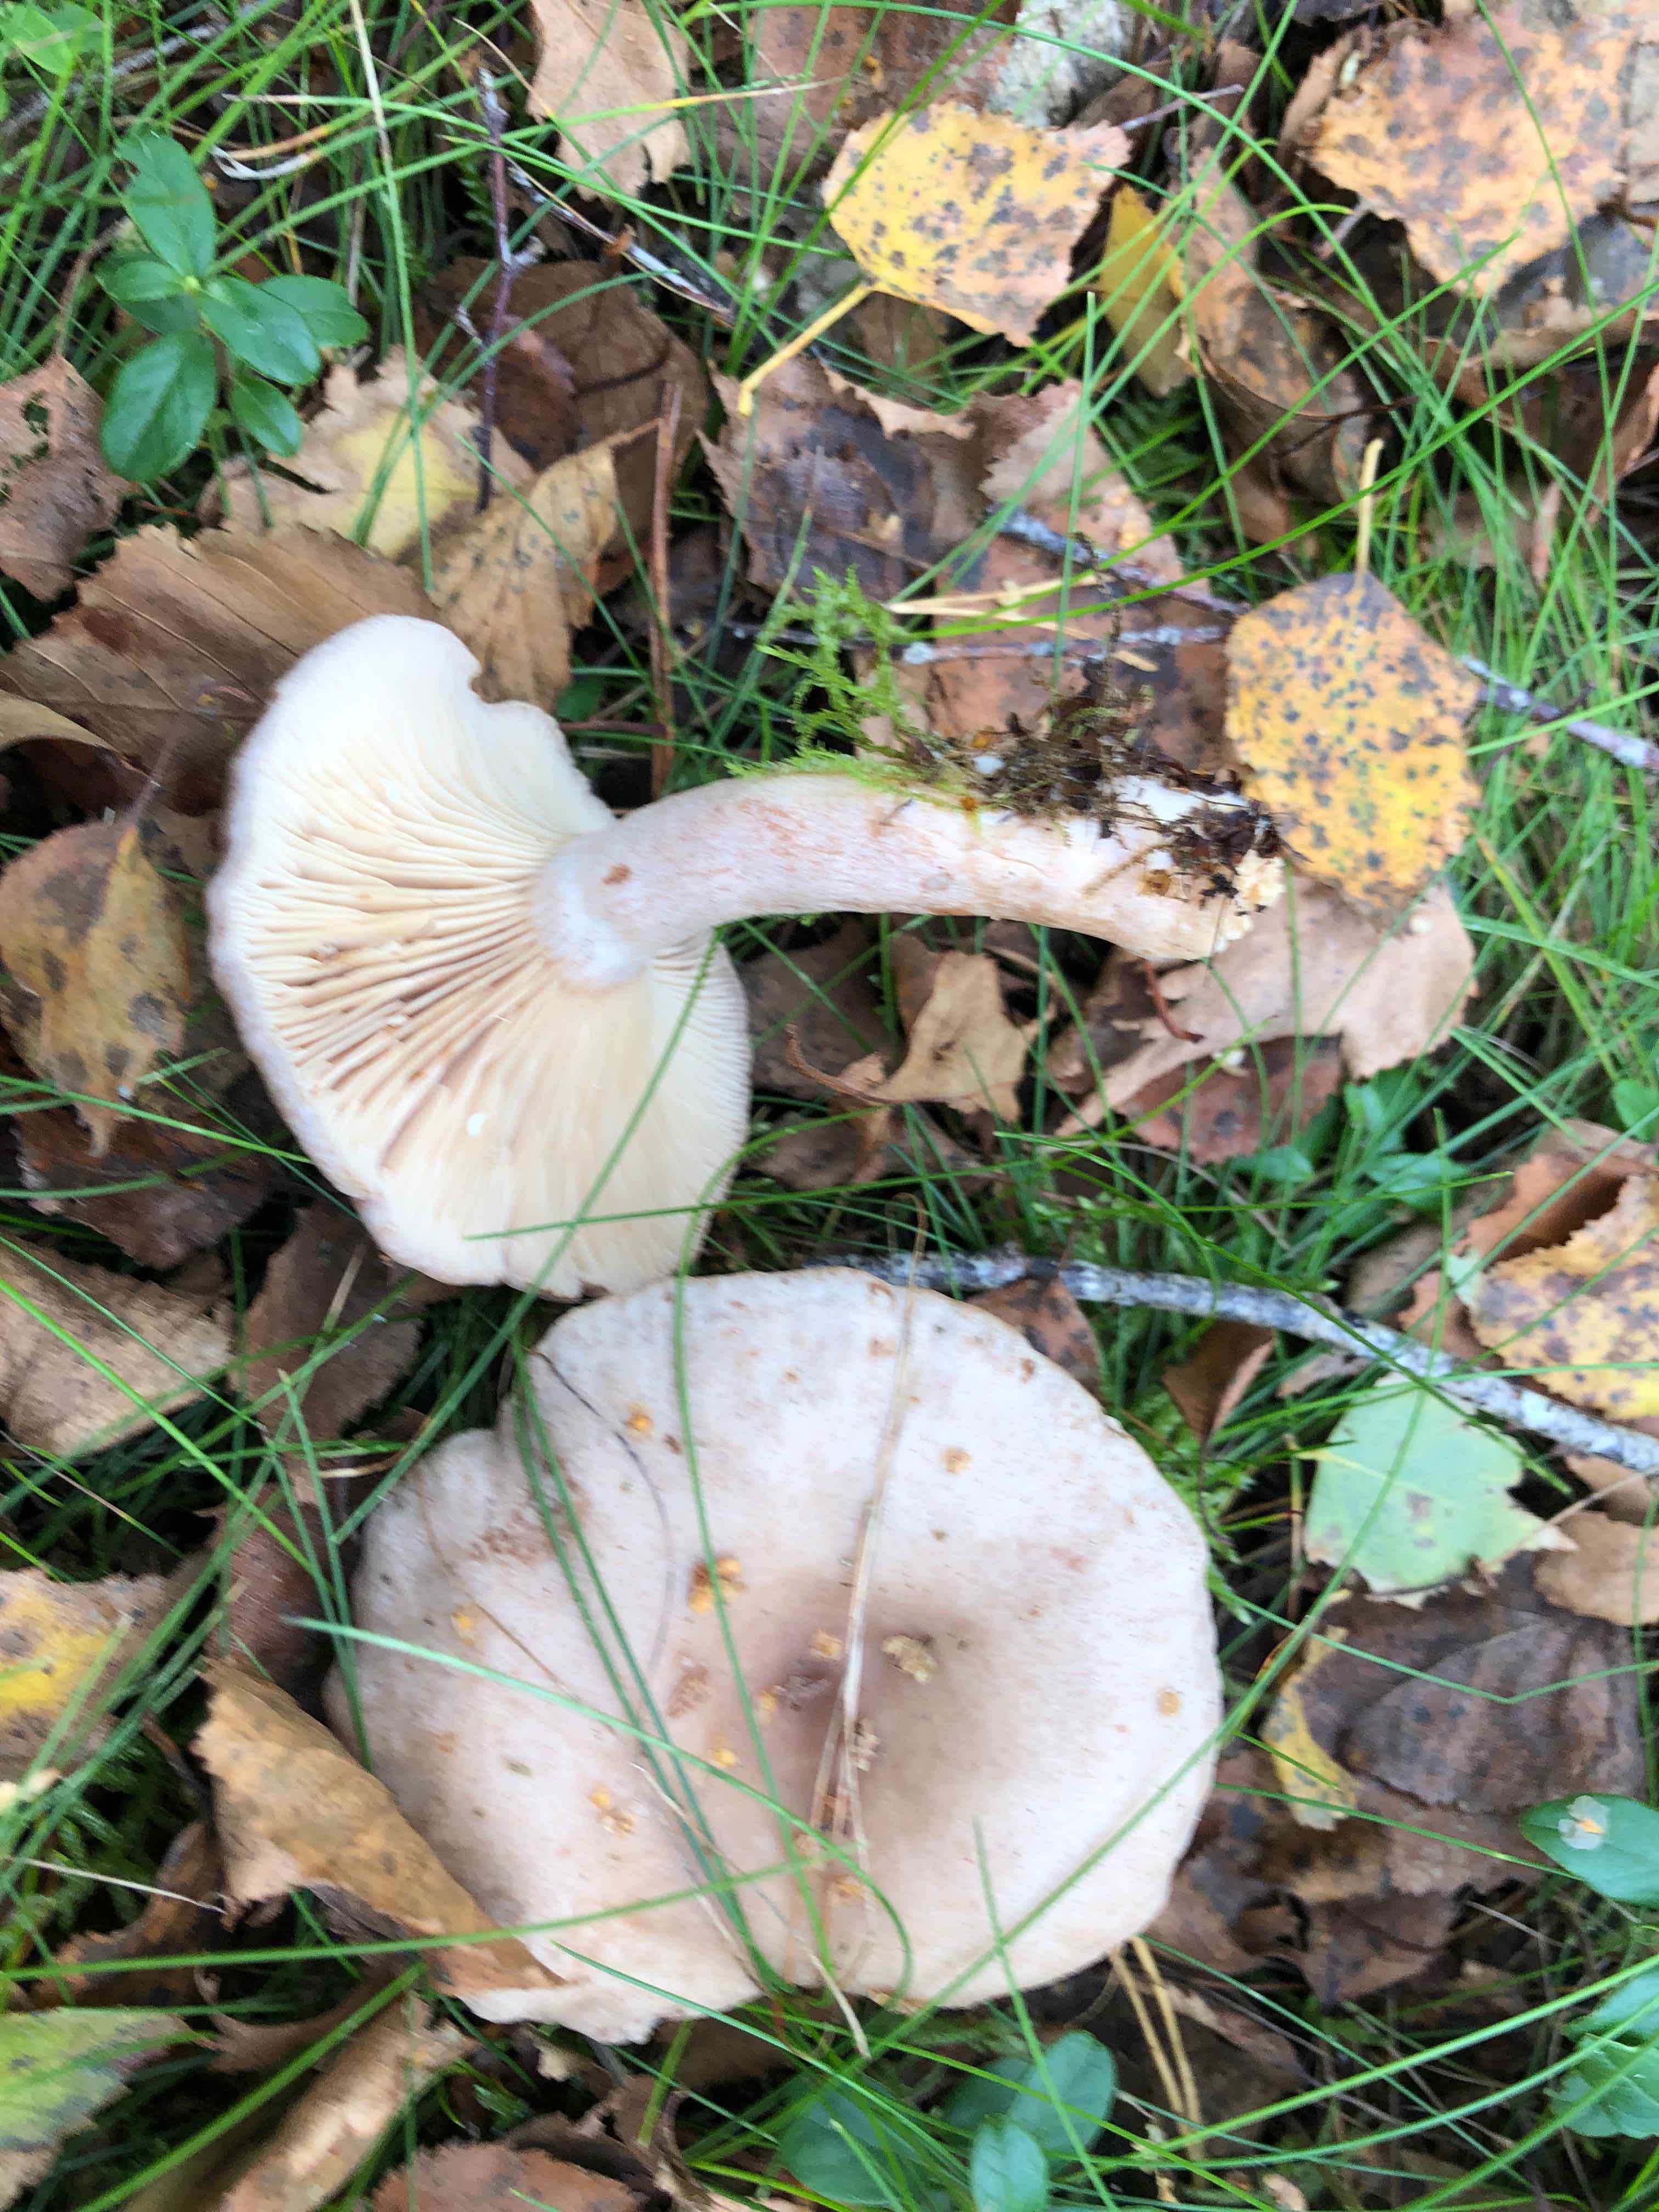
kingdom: Fungi
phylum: Basidiomycota
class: Agaricomycetes
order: Russulales
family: Russulaceae
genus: Lactarius
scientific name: Lactarius vietus
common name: violetgrå mælkehat
